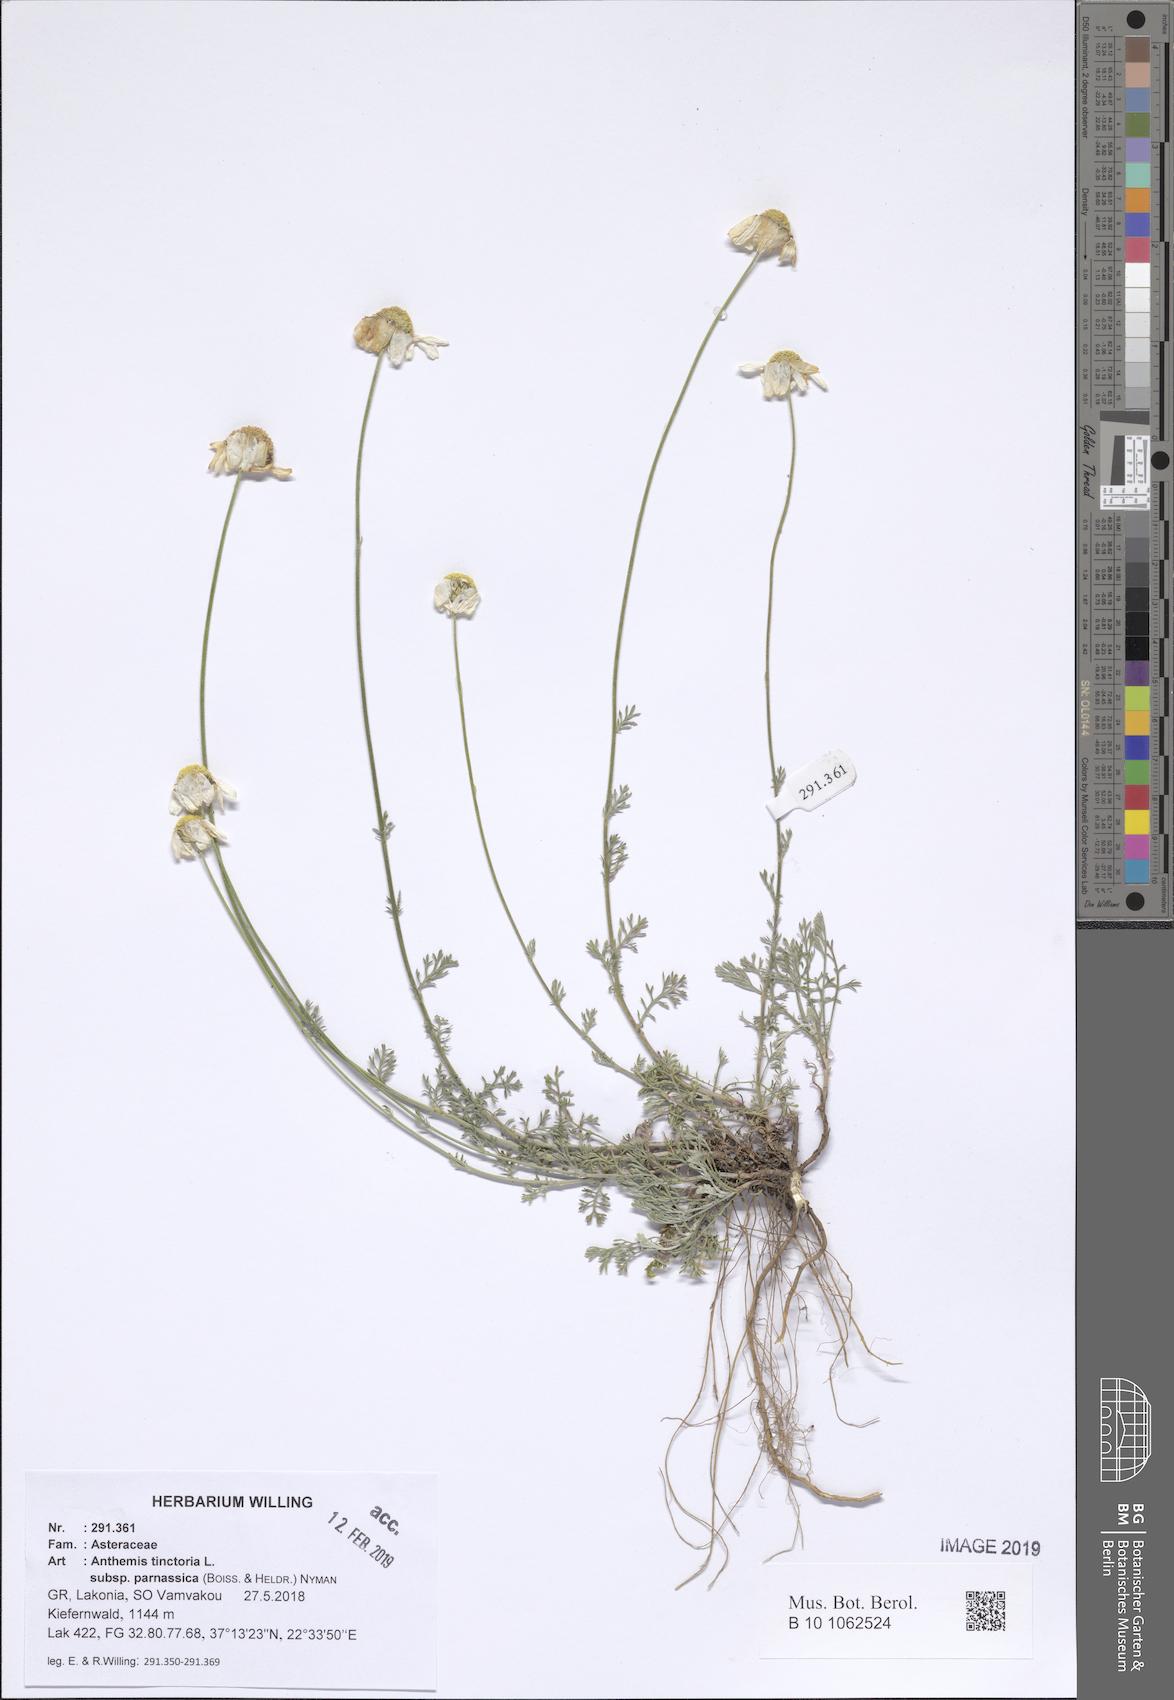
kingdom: Plantae
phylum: Tracheophyta
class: Magnoliopsida
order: Asterales
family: Asteraceae
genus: Cota
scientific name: Cota tinctoria
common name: Golden chamomile
